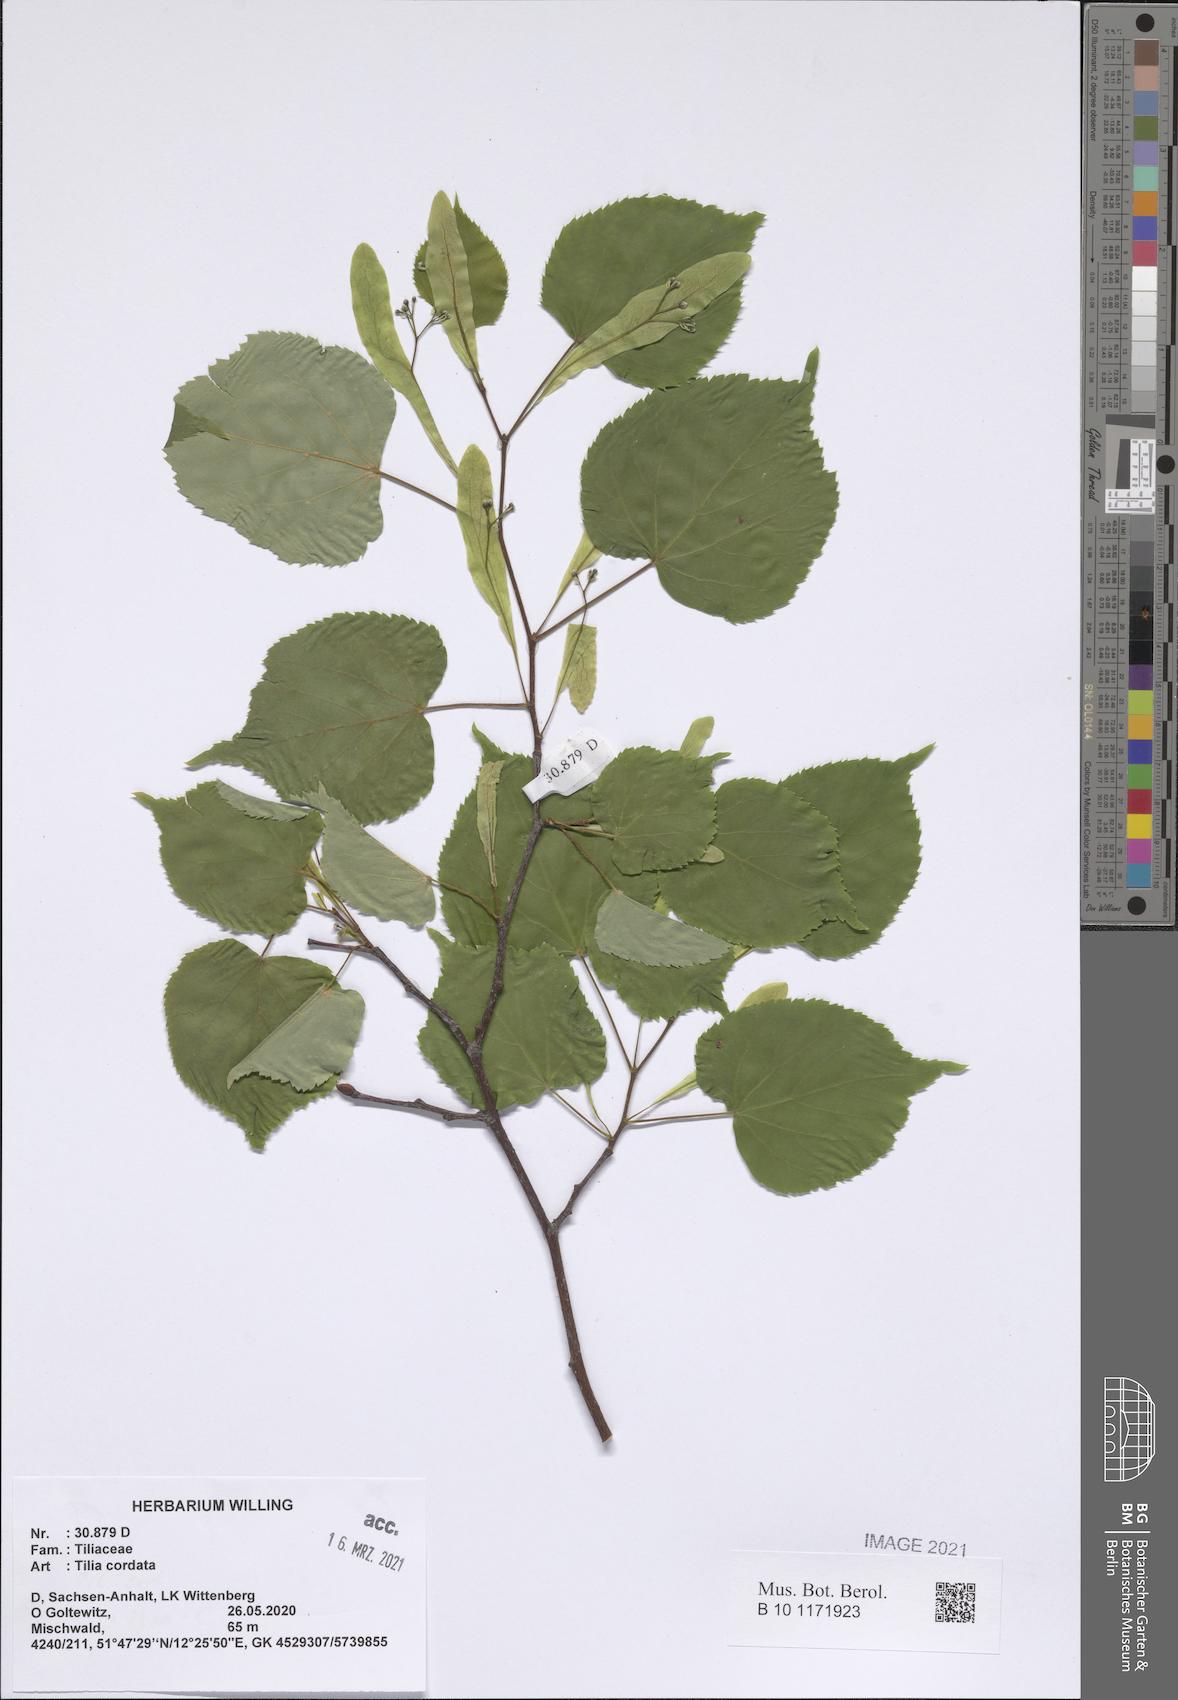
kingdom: Plantae
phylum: Tracheophyta
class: Magnoliopsida
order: Malvales
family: Malvaceae
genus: Tilia
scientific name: Tilia cordata
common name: Small-leaved lime
